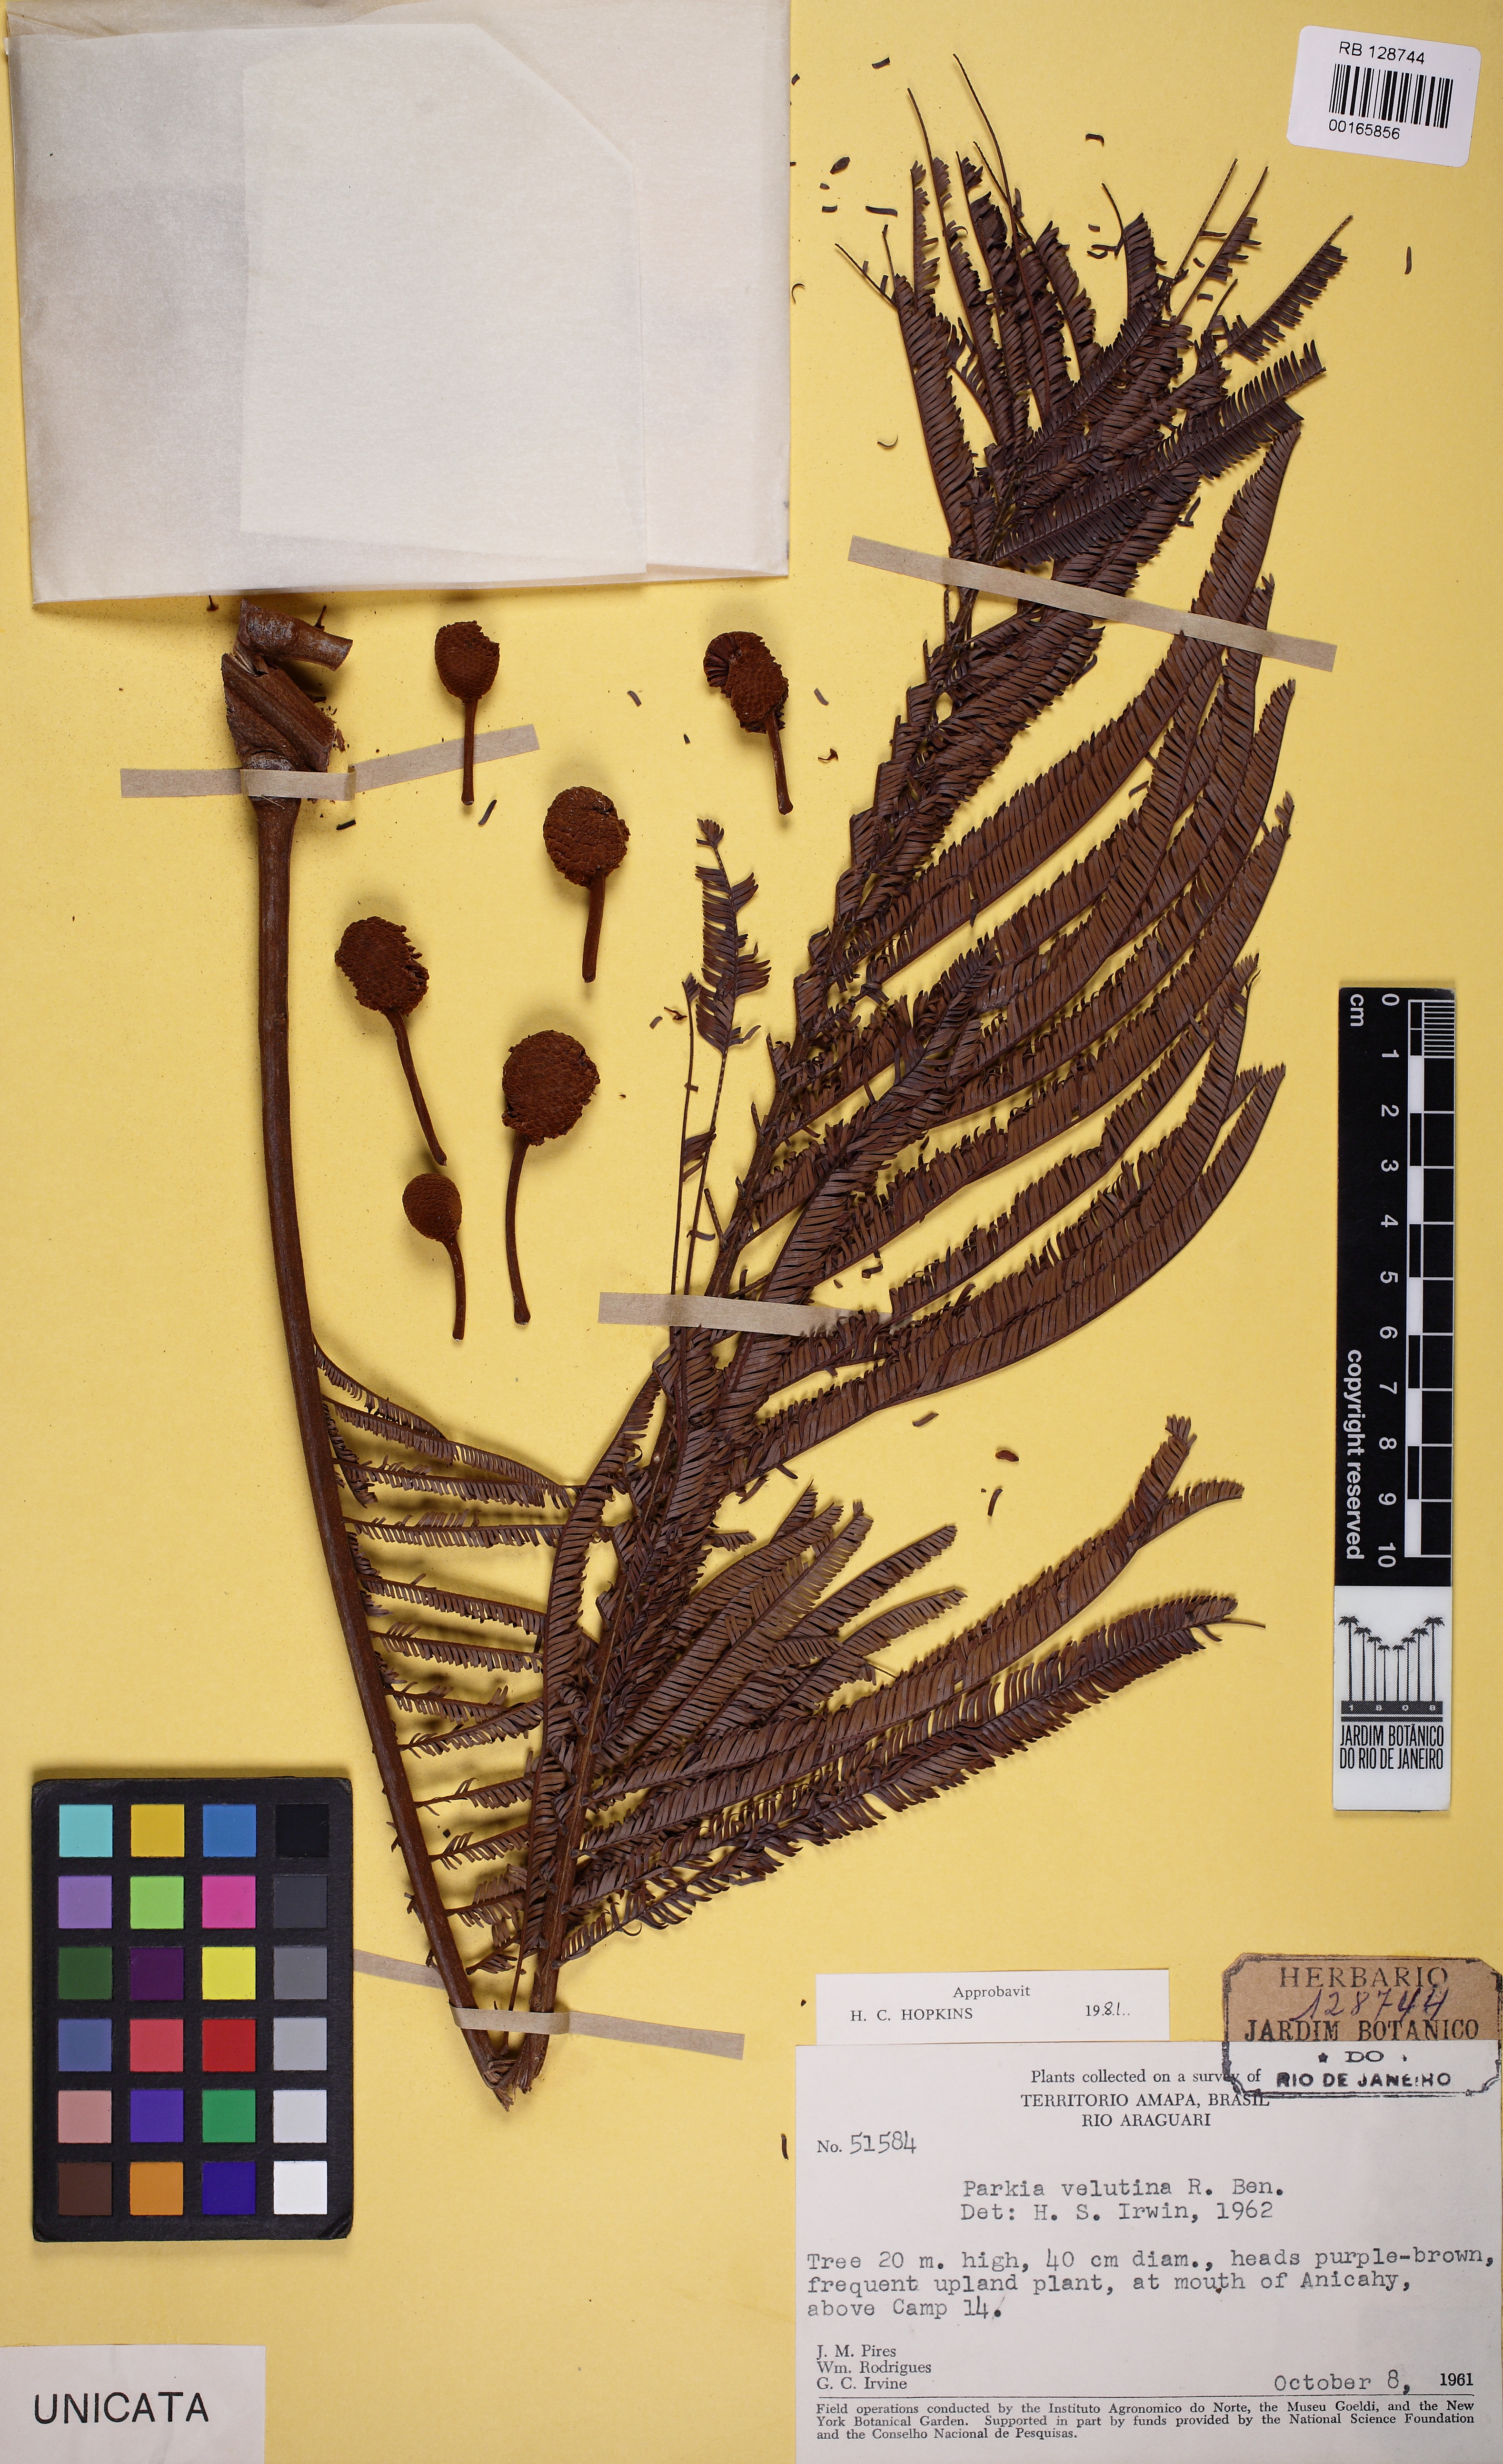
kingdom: Plantae
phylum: Tracheophyta
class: Magnoliopsida
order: Fabales
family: Fabaceae
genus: Parkia
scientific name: Parkia velutina
